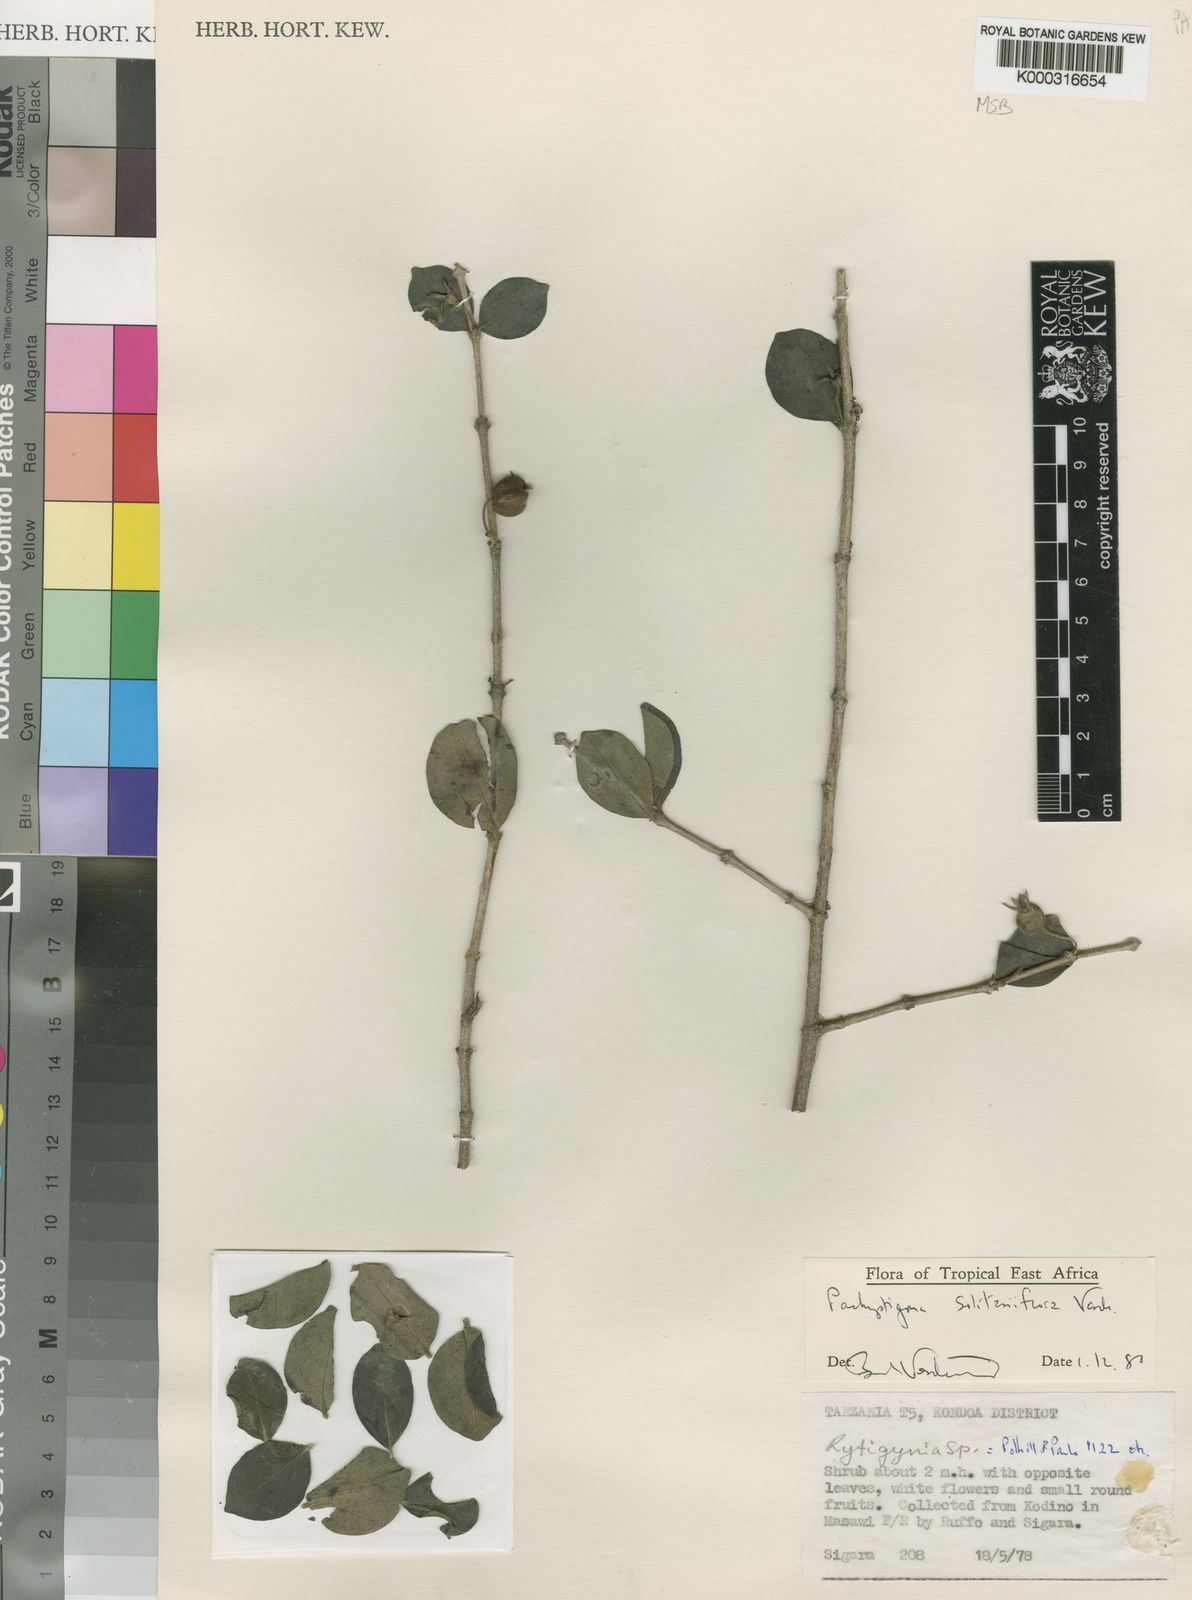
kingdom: Plantae
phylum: Tracheophyta
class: Magnoliopsida
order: Gentianales
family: Rubiaceae
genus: Vangueria
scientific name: Vangueria solitariiflora
